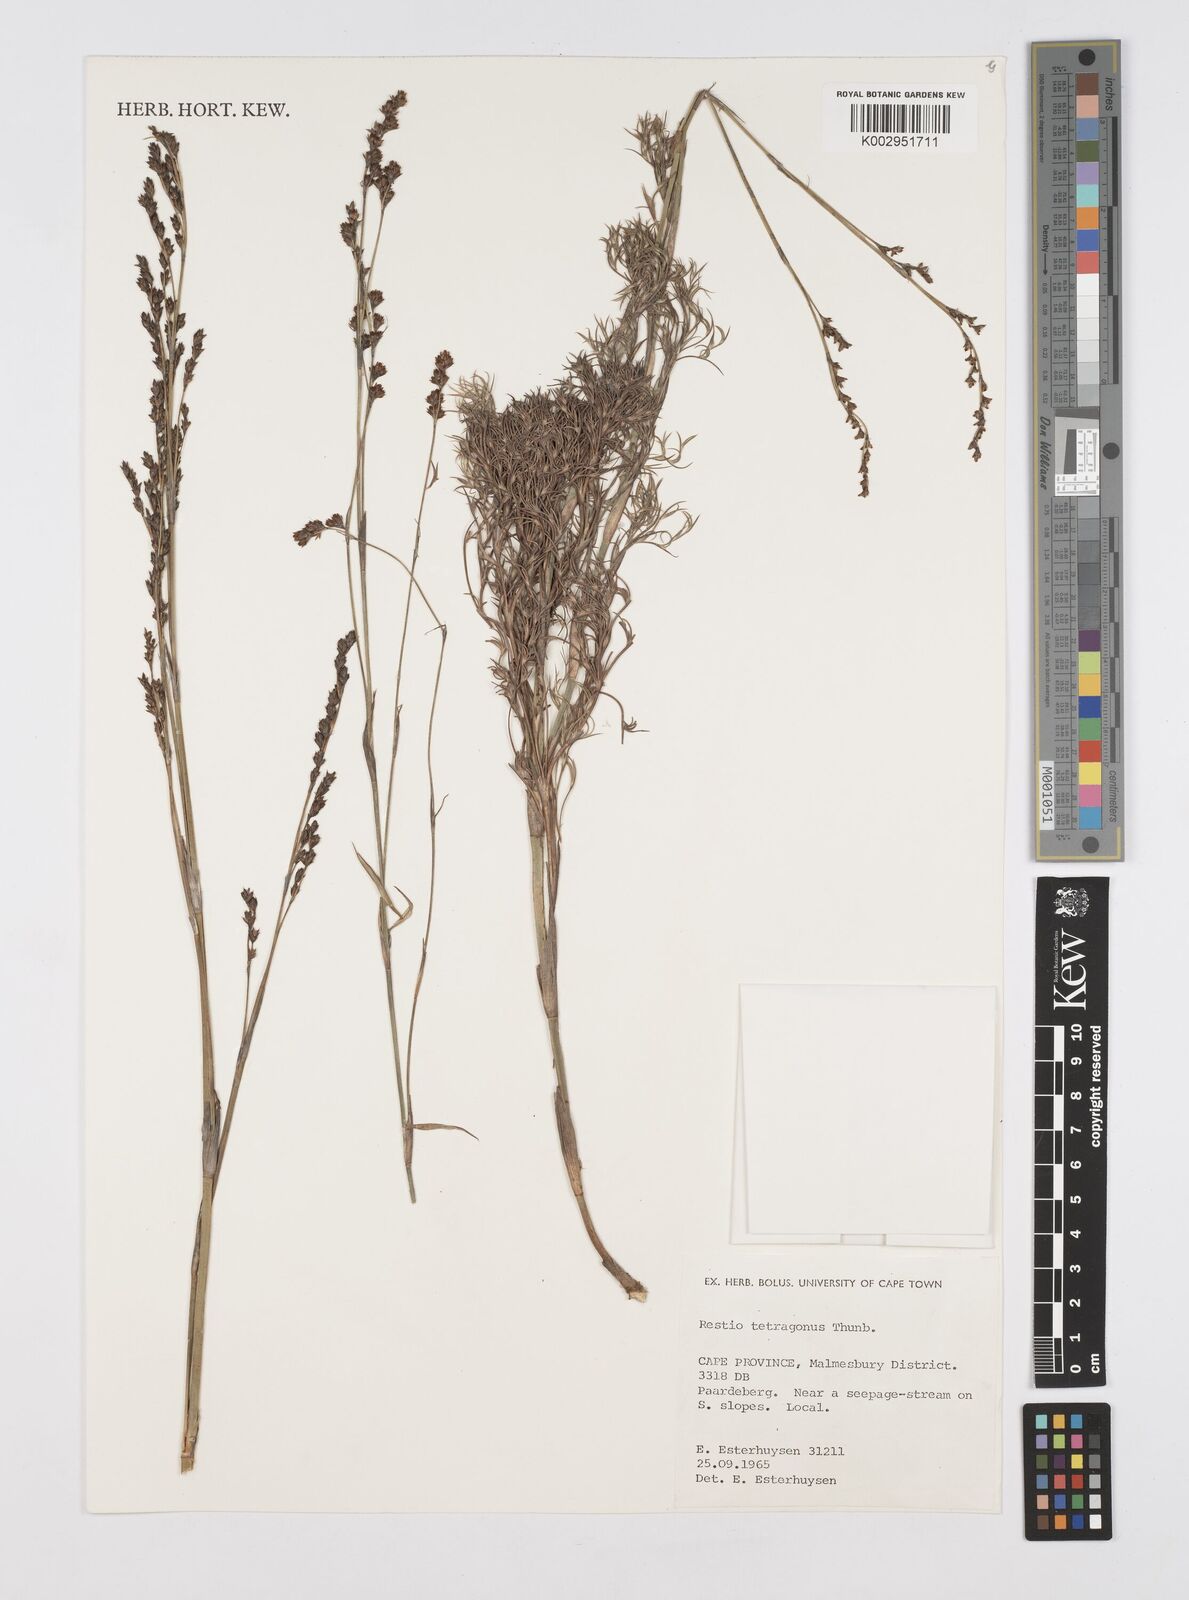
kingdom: Plantae
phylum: Tracheophyta
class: Liliopsida
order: Poales
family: Restionaceae
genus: Restio
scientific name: Restio tetragonus
